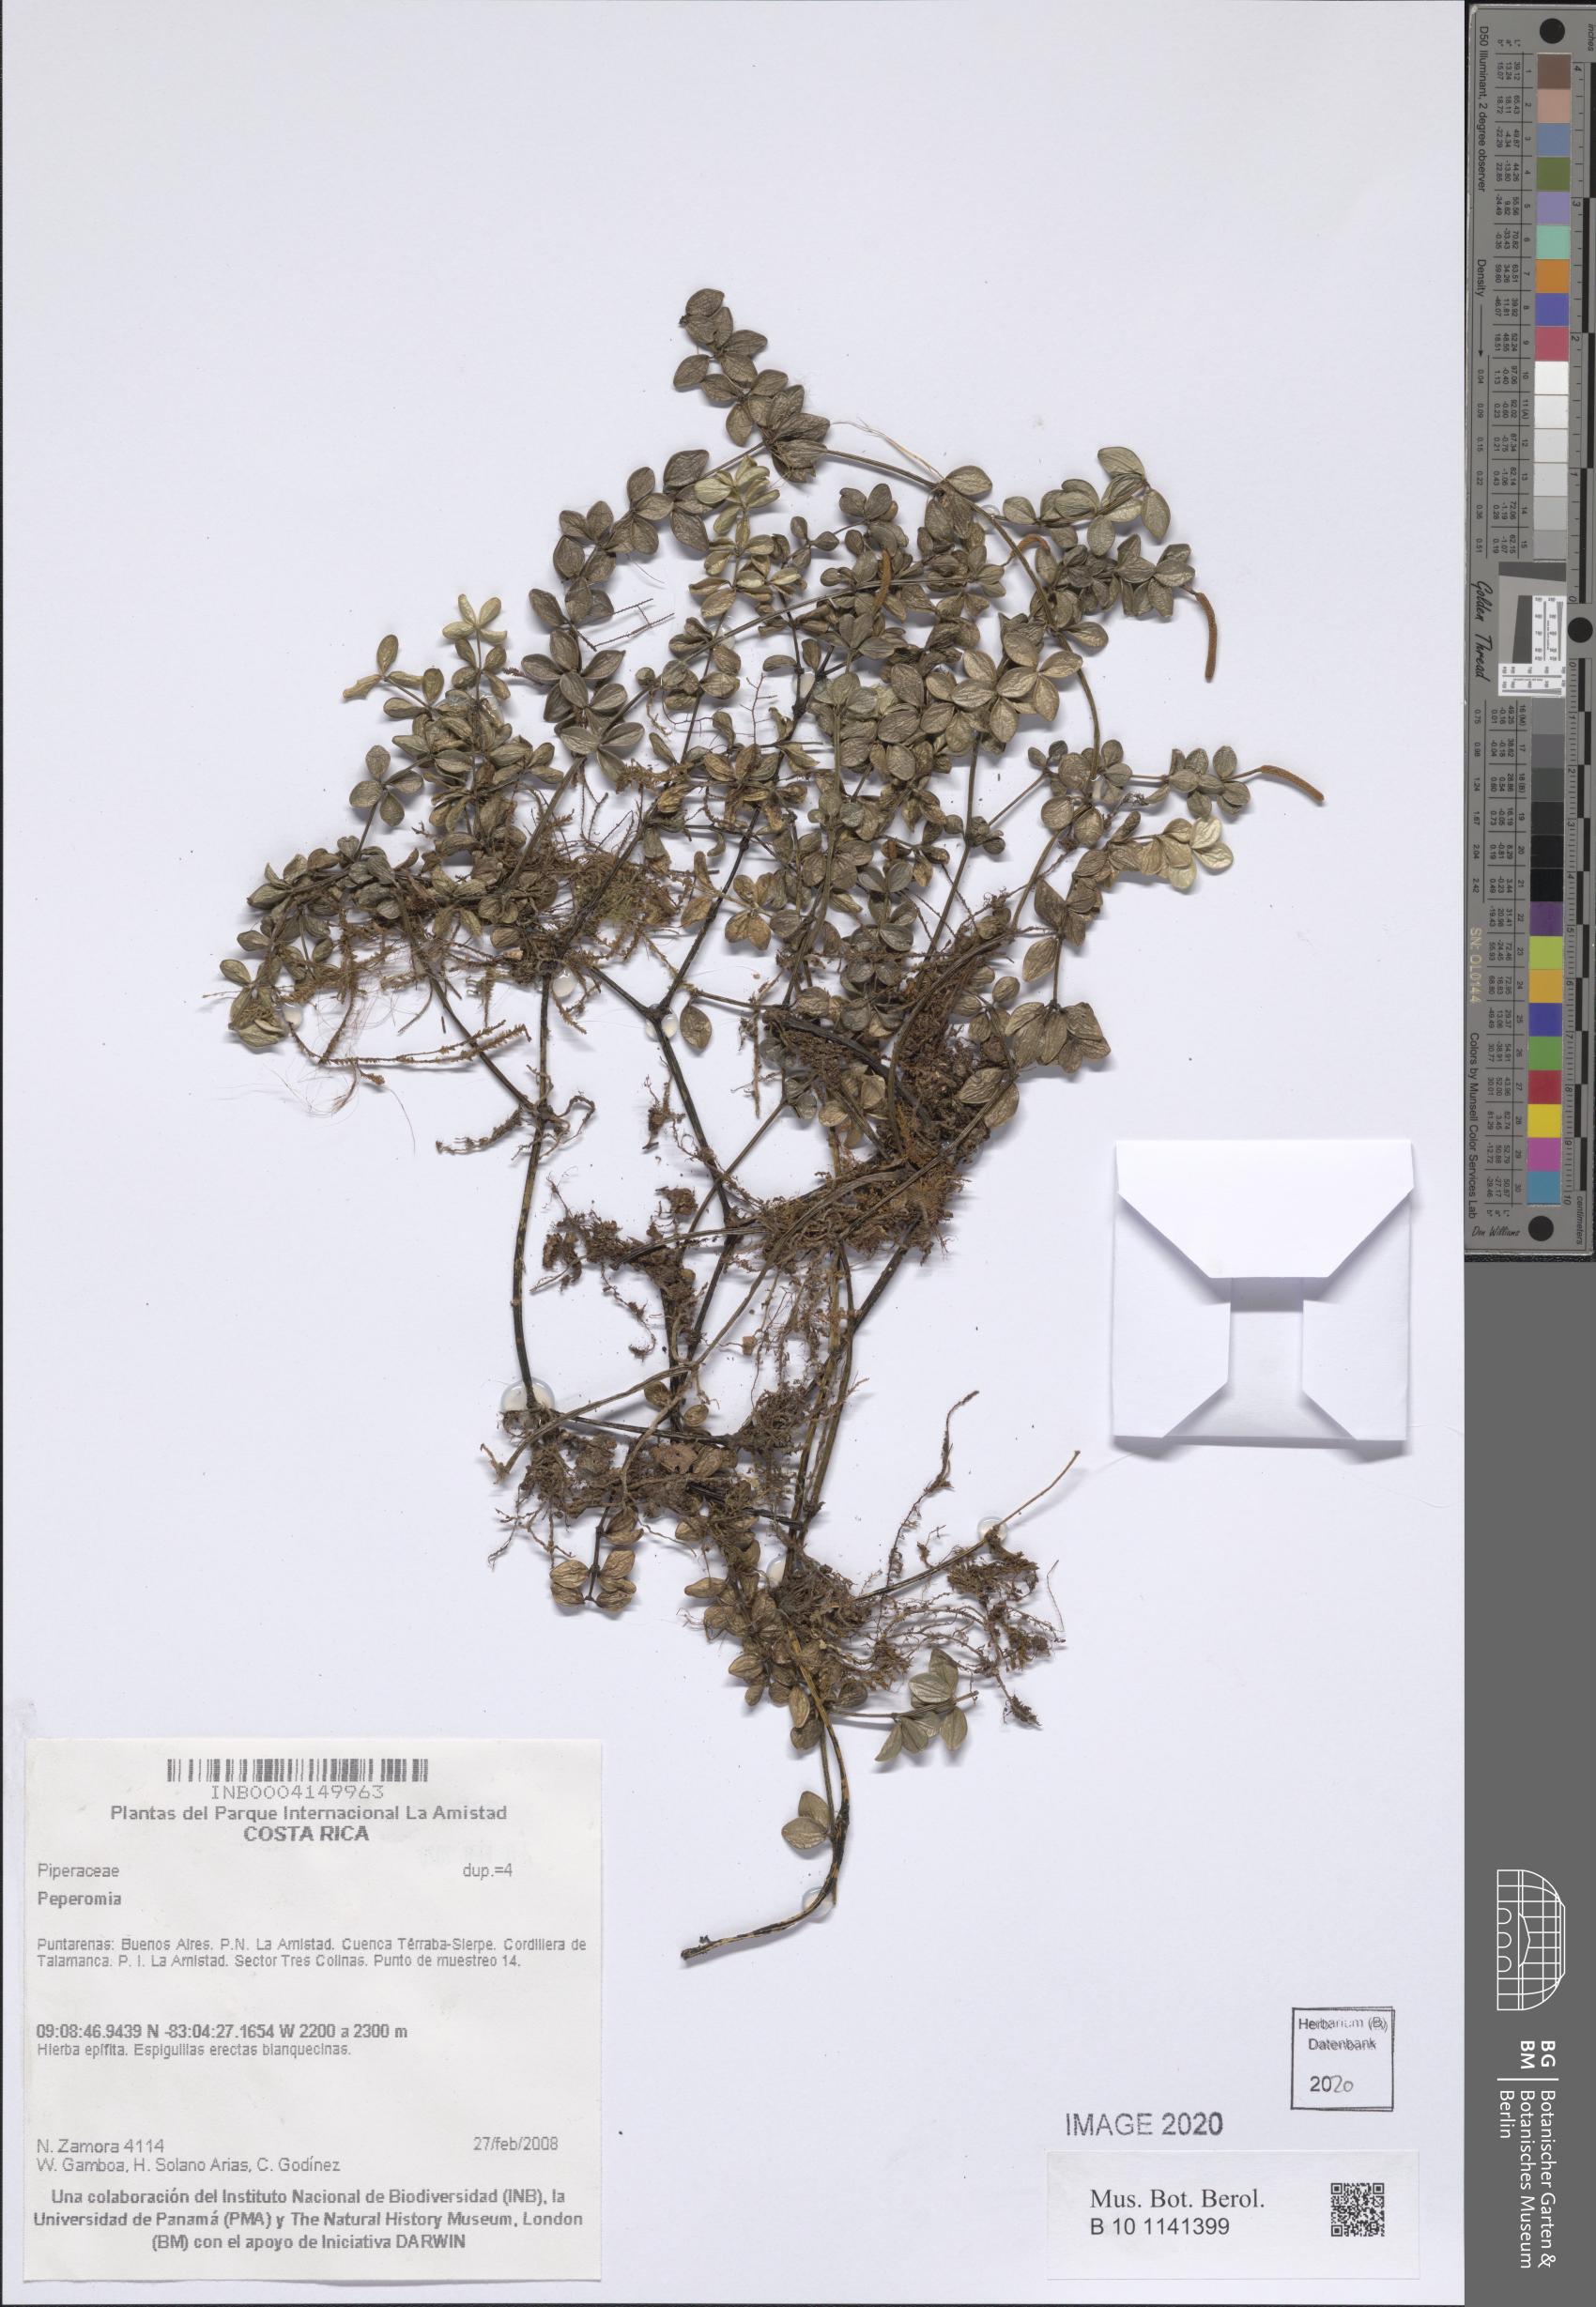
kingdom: Plantae
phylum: Tracheophyta
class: Magnoliopsida
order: Piperales
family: Piperaceae
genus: Peperomia
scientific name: Peperomia
